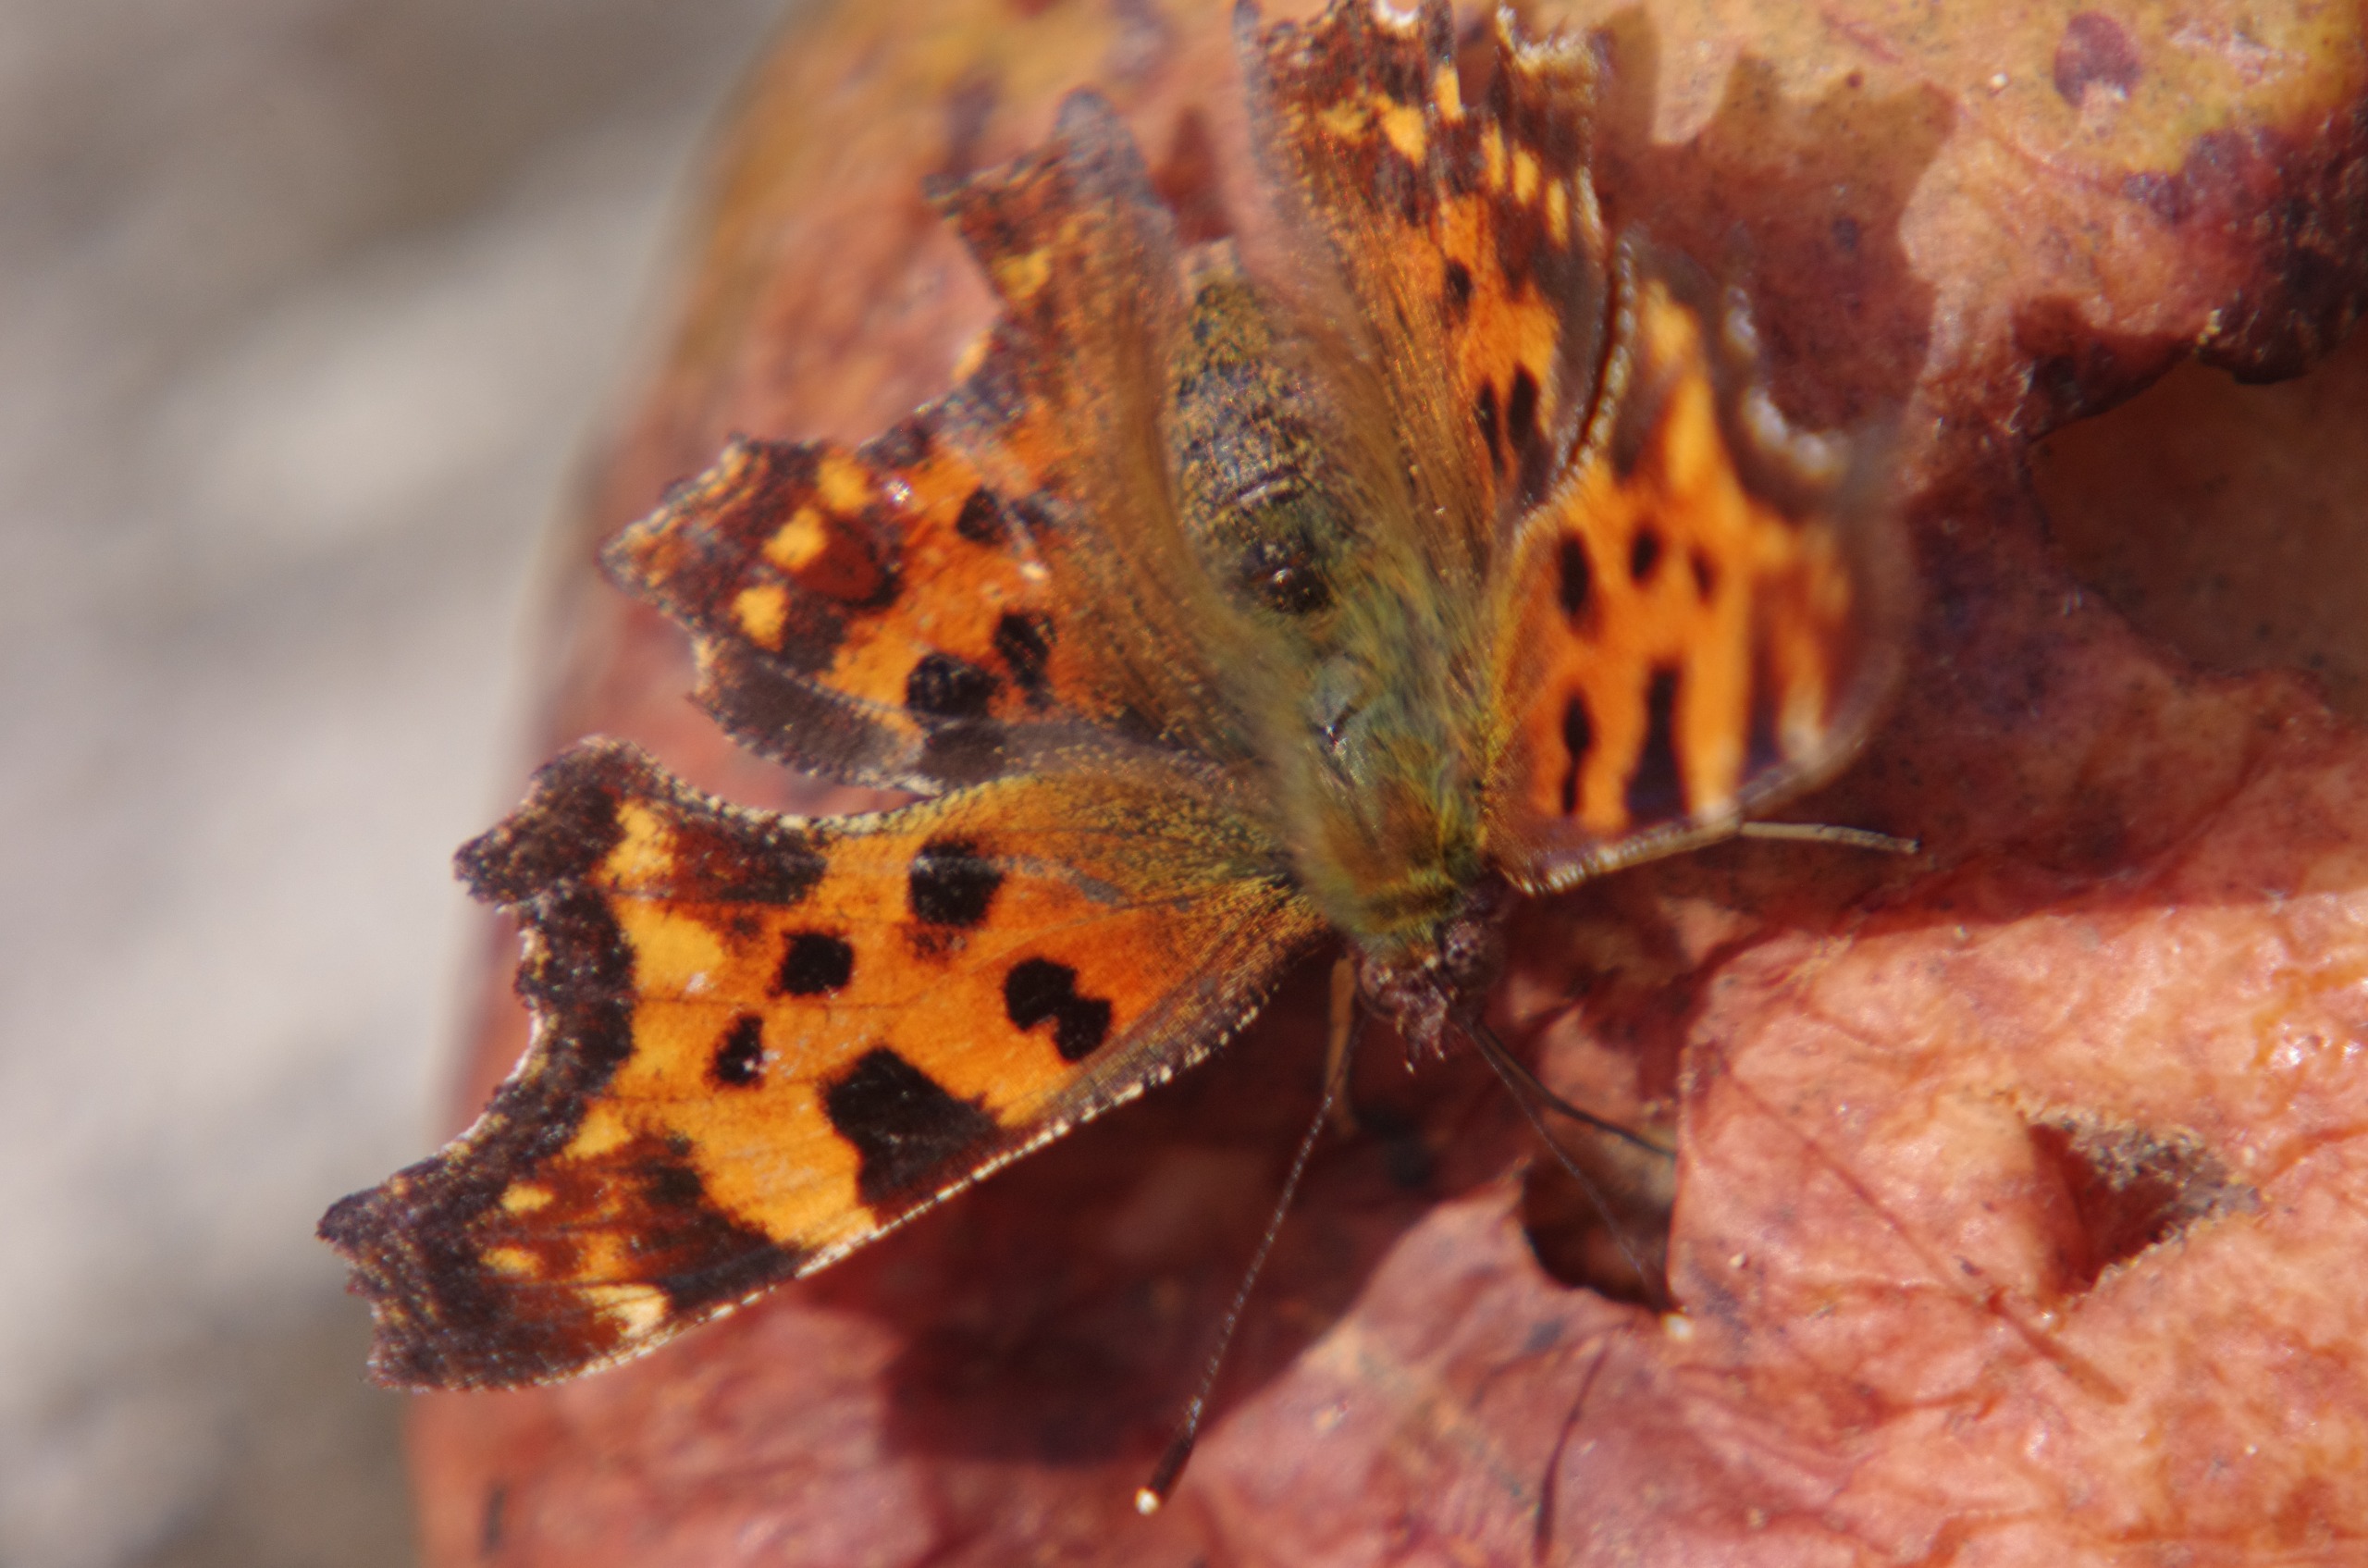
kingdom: Animalia
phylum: Arthropoda
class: Insecta
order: Lepidoptera
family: Nymphalidae
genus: Polygonia
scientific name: Polygonia c-album
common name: Det hvide C
